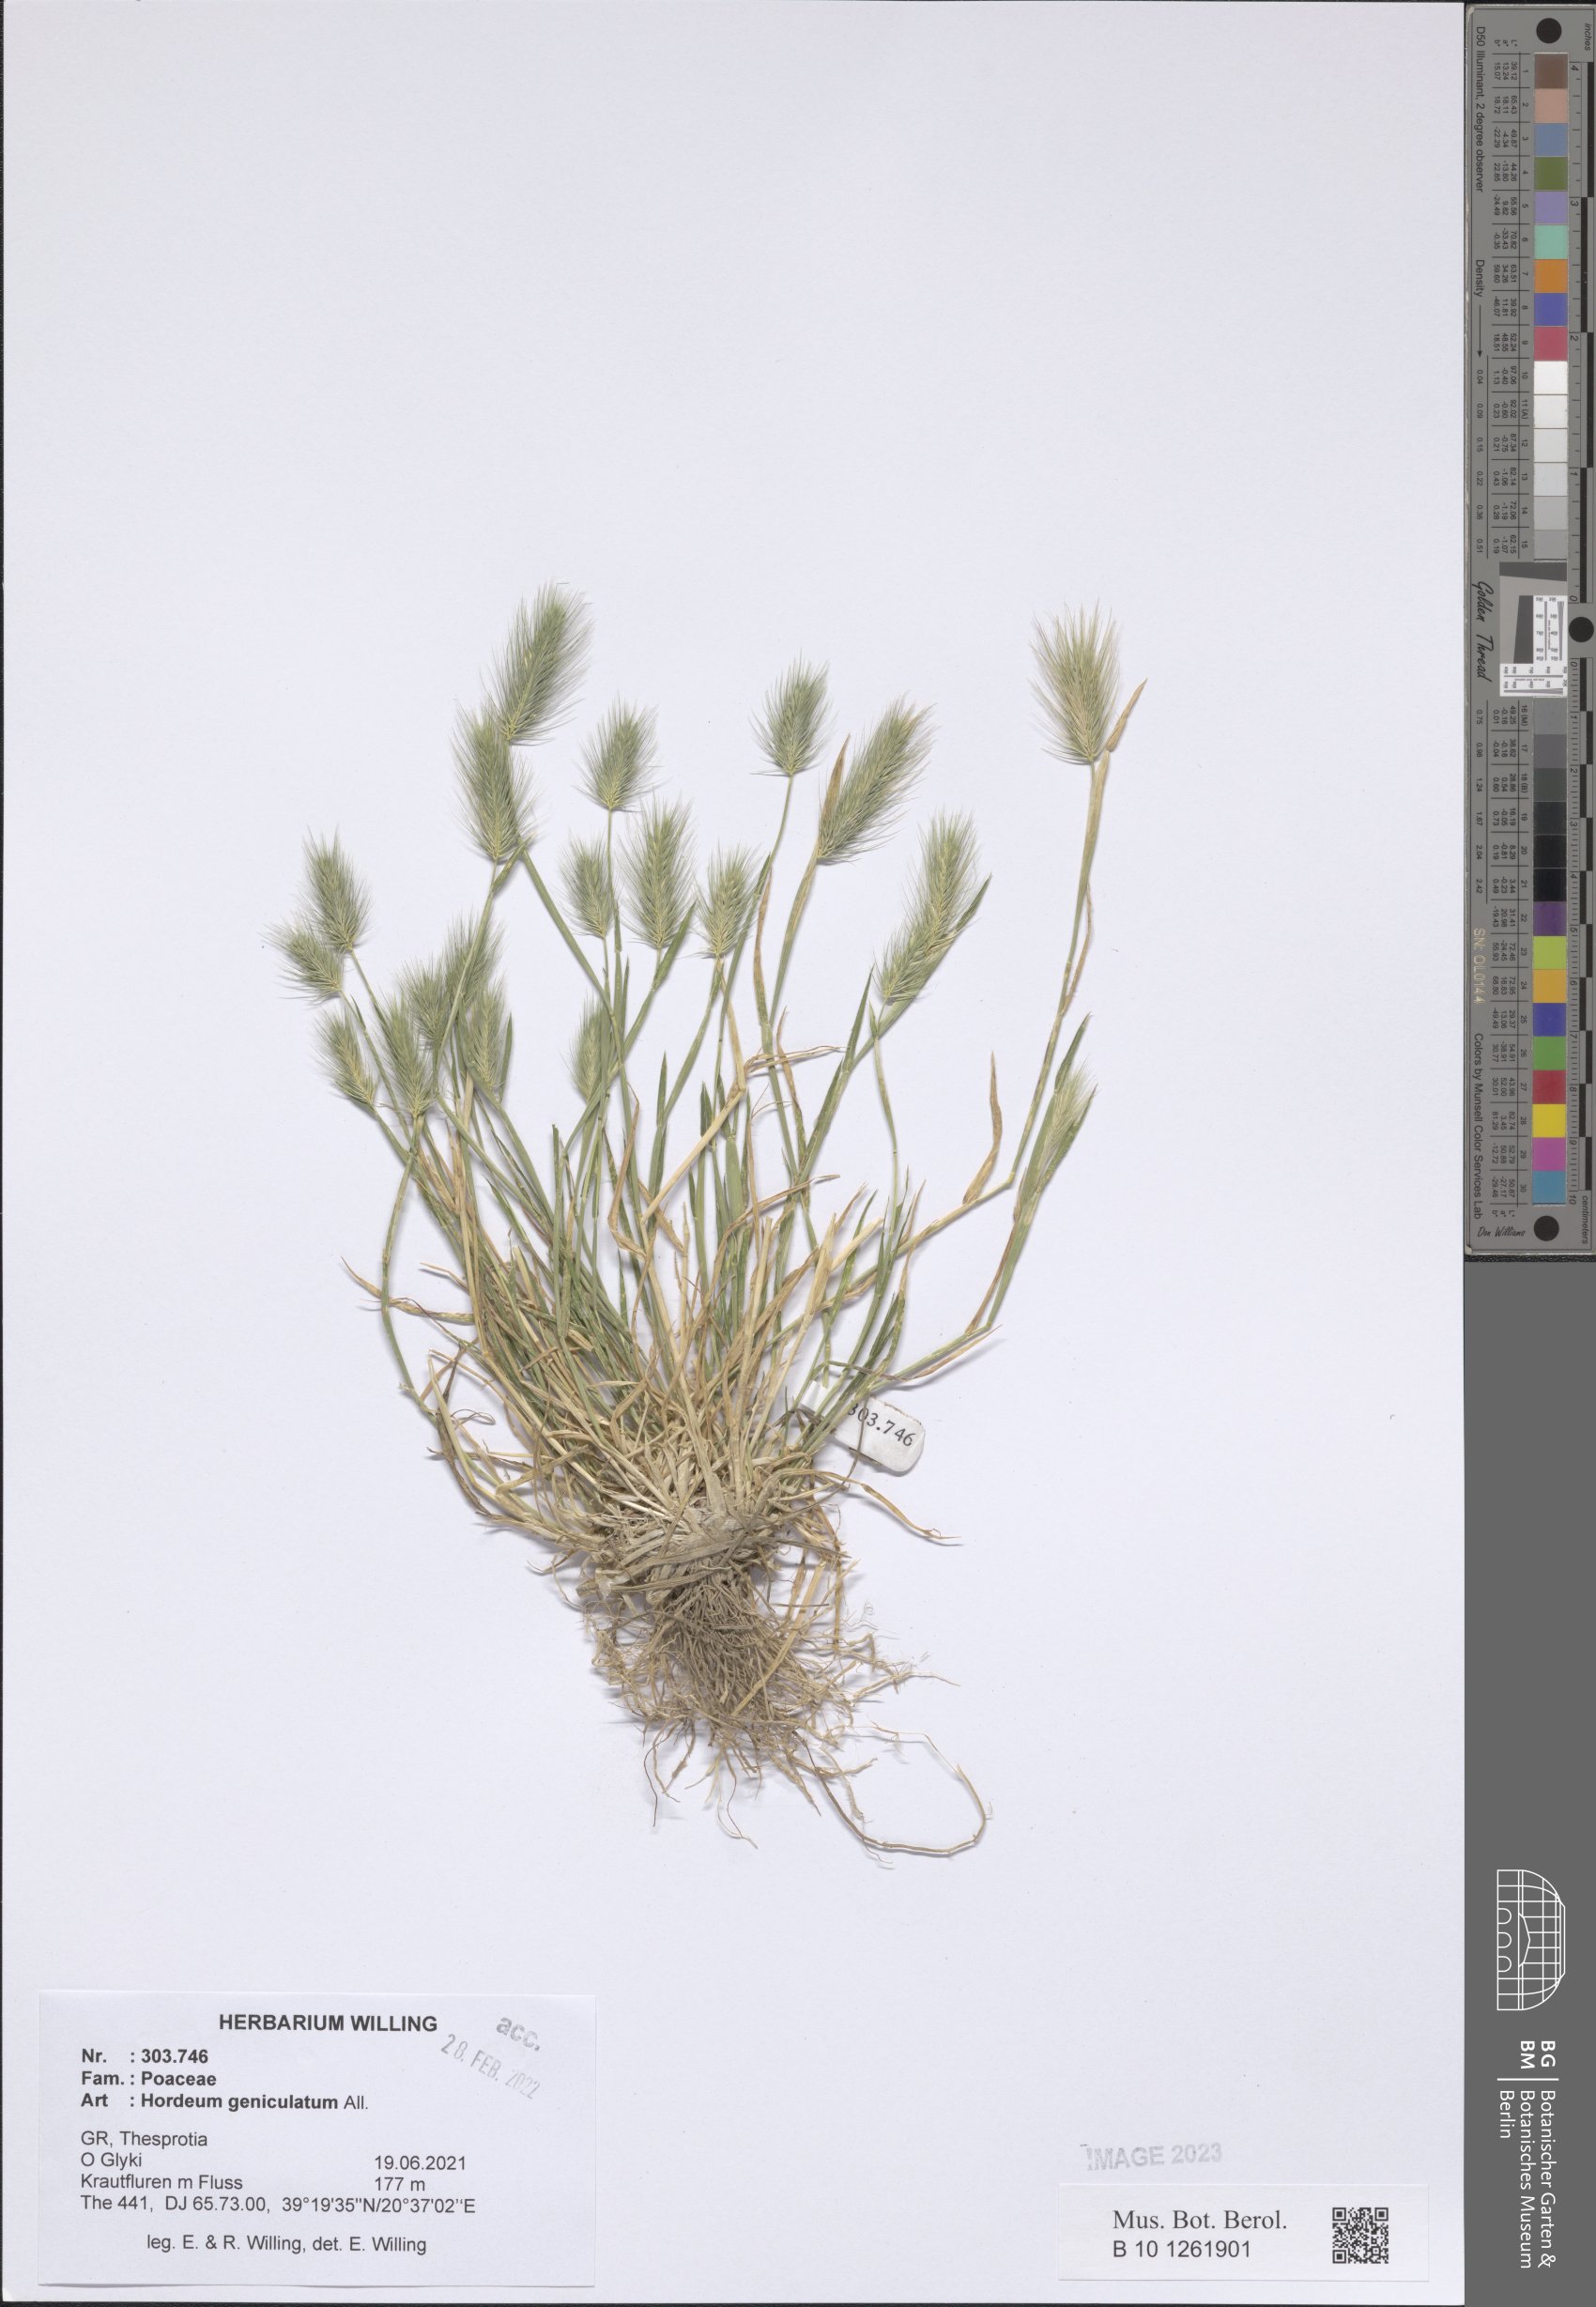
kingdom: Plantae
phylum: Tracheophyta
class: Liliopsida
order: Poales
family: Poaceae
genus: Hordeum
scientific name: Hordeum marinum
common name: Sea barley
